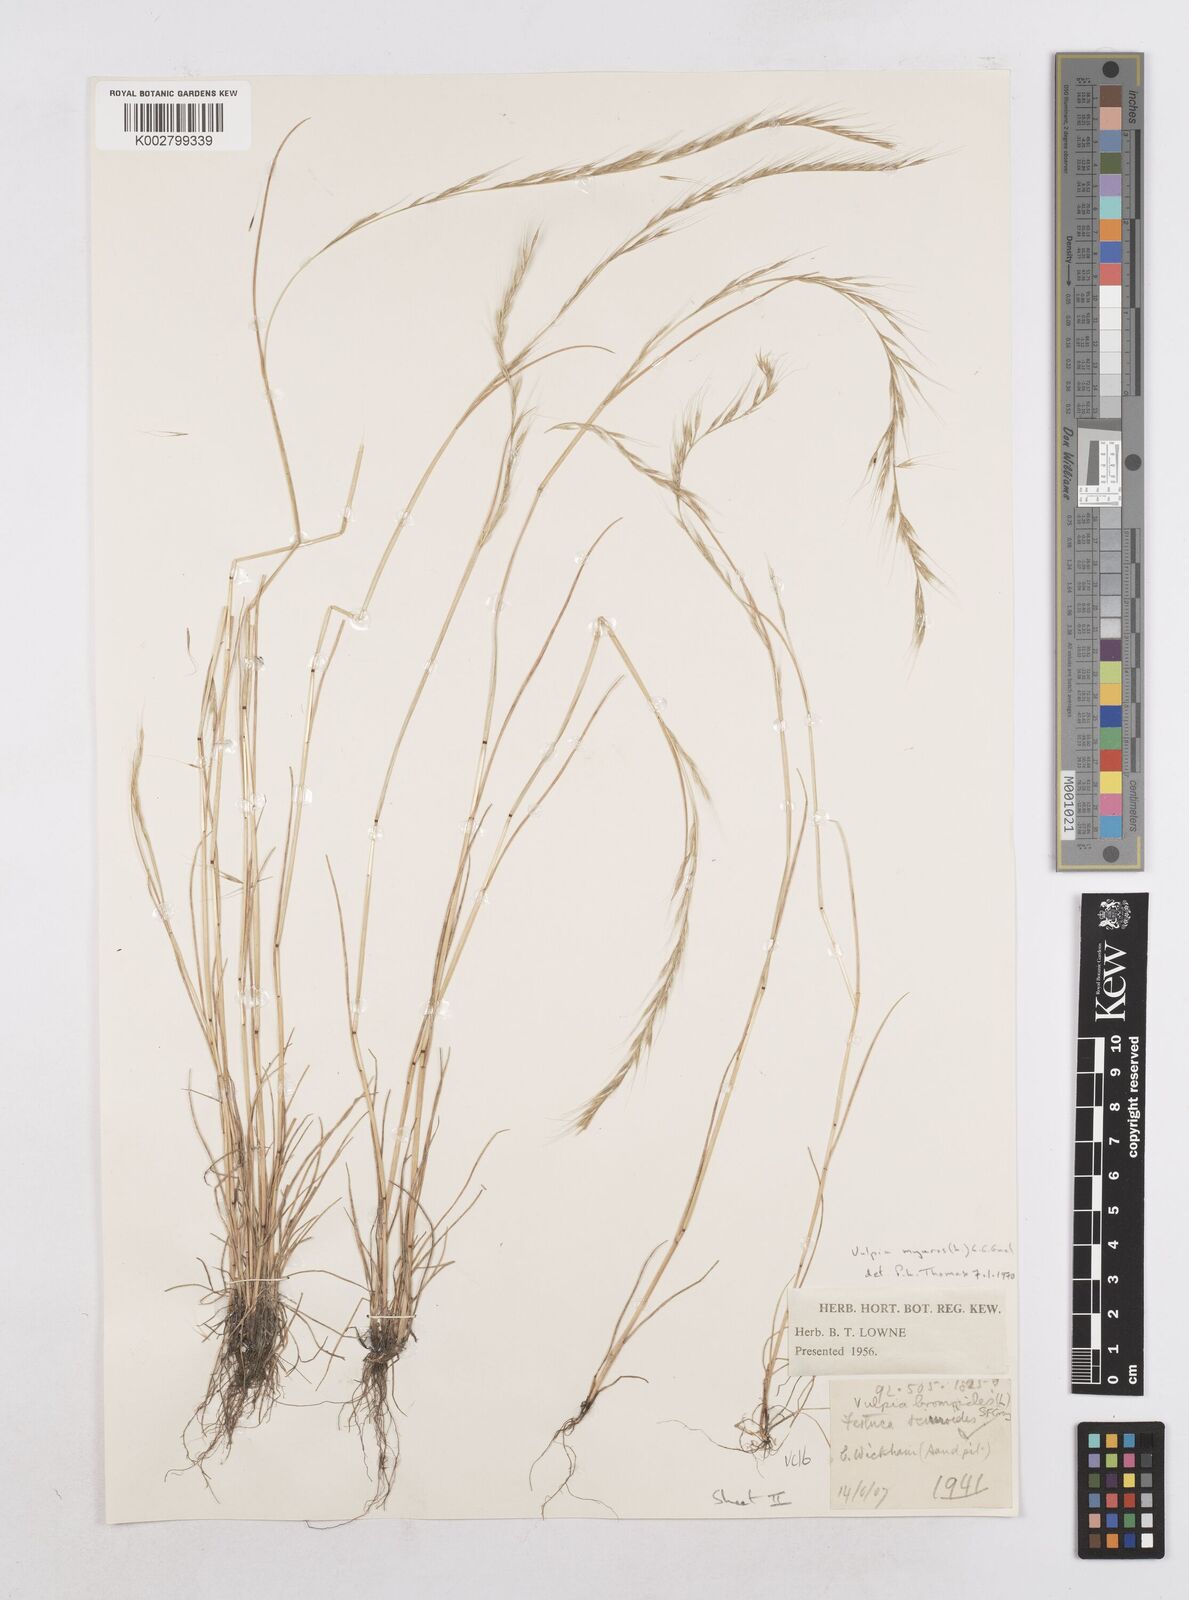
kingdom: Plantae
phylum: Tracheophyta
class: Liliopsida
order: Poales
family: Poaceae
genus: Festuca
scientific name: Festuca myuros
